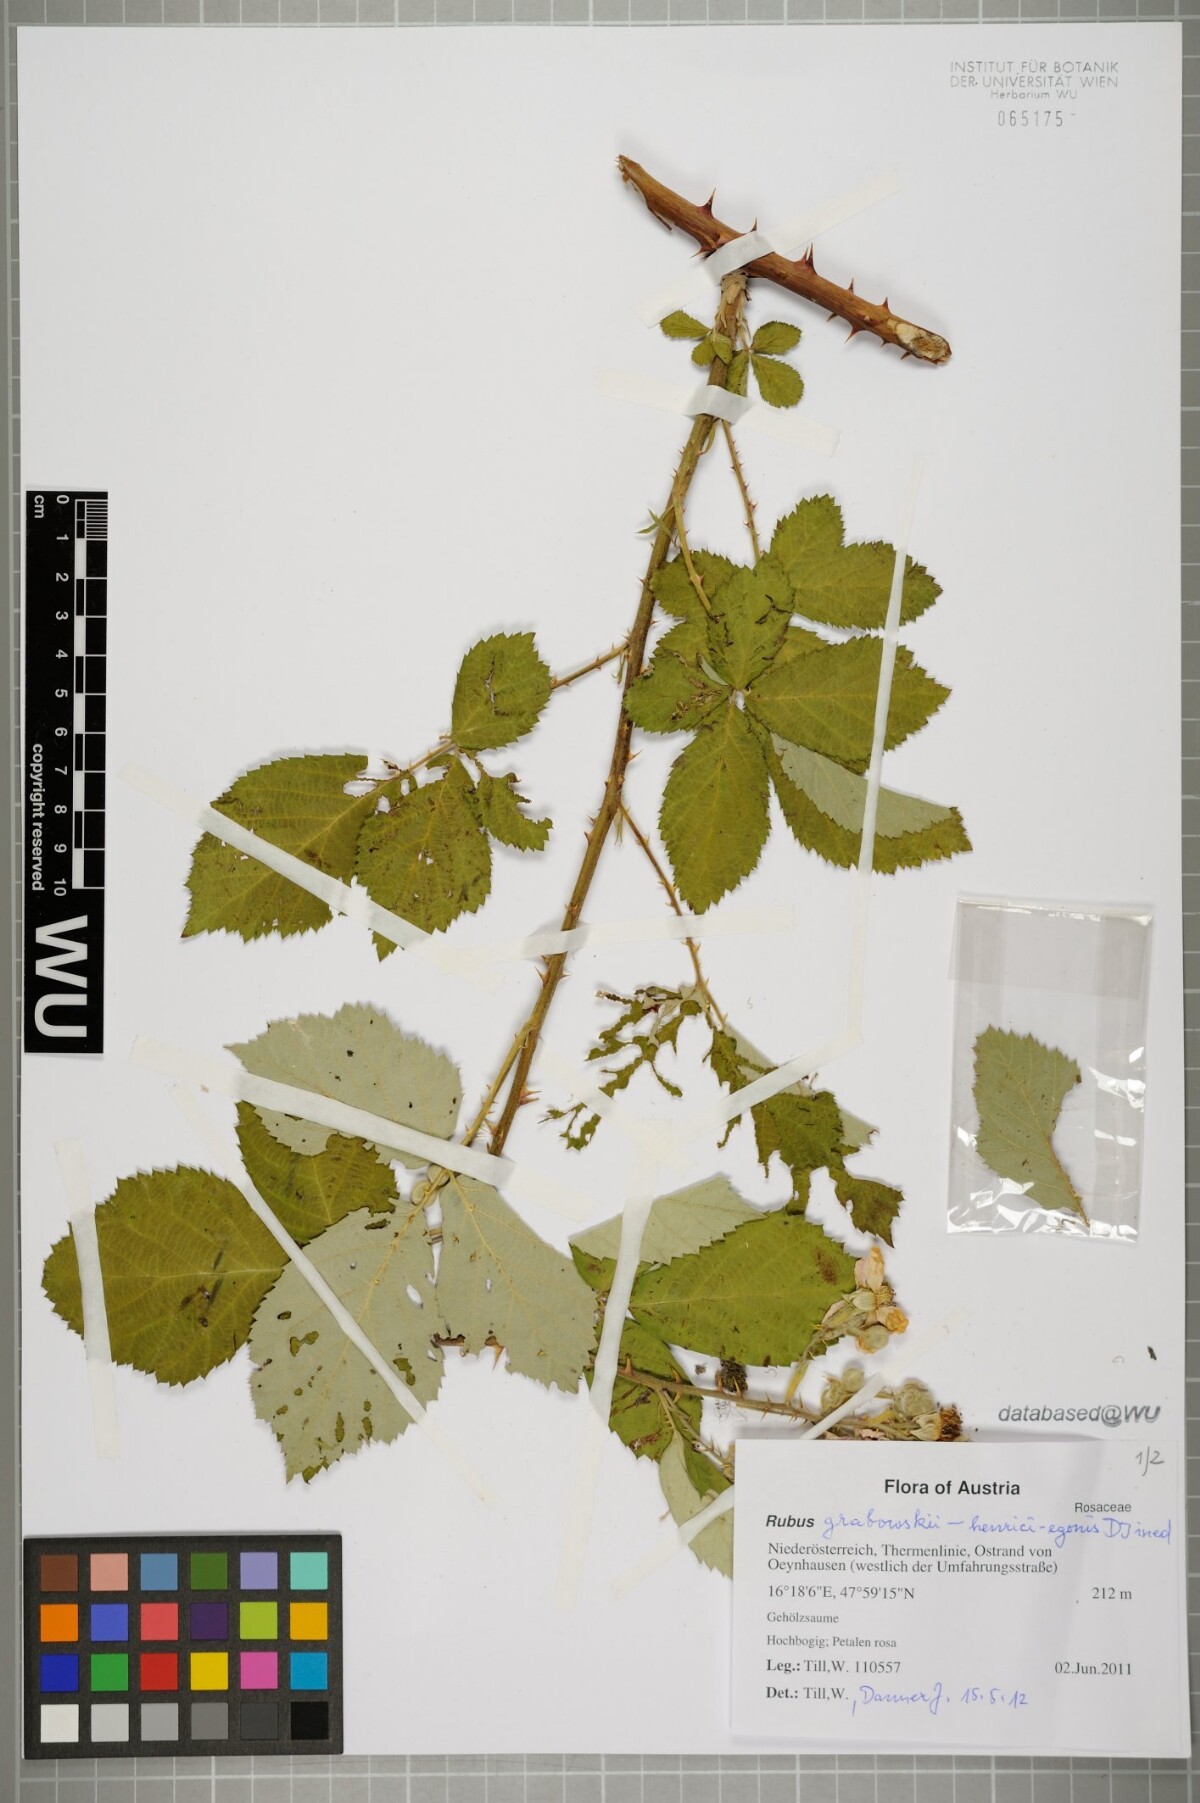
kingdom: Plantae
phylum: Tracheophyta
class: Magnoliopsida
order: Rosales
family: Rosaceae
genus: Rubus
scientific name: Rubus armeniacus
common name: Himalayan blackberry
